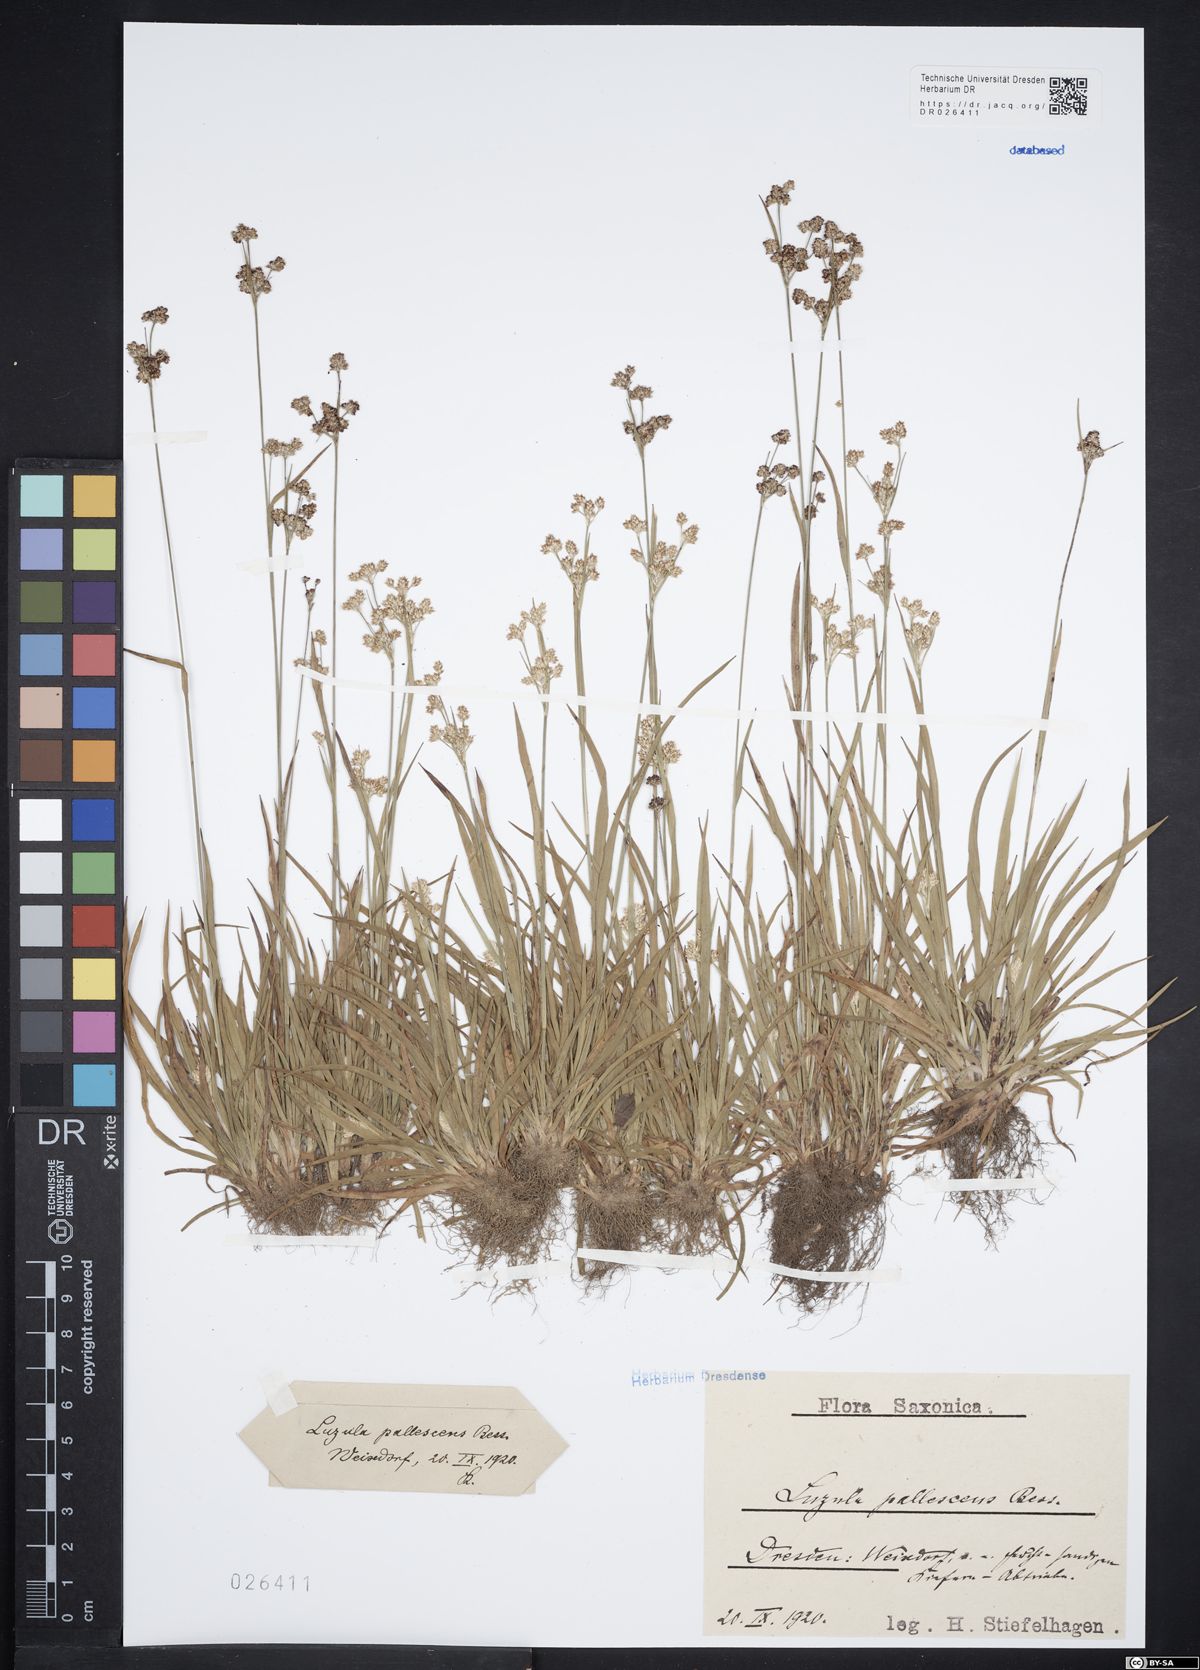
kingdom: Plantae
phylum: Tracheophyta
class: Liliopsida
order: Poales
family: Juncaceae
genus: Luzula
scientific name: Luzula pallescens
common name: Fen wood-rush
